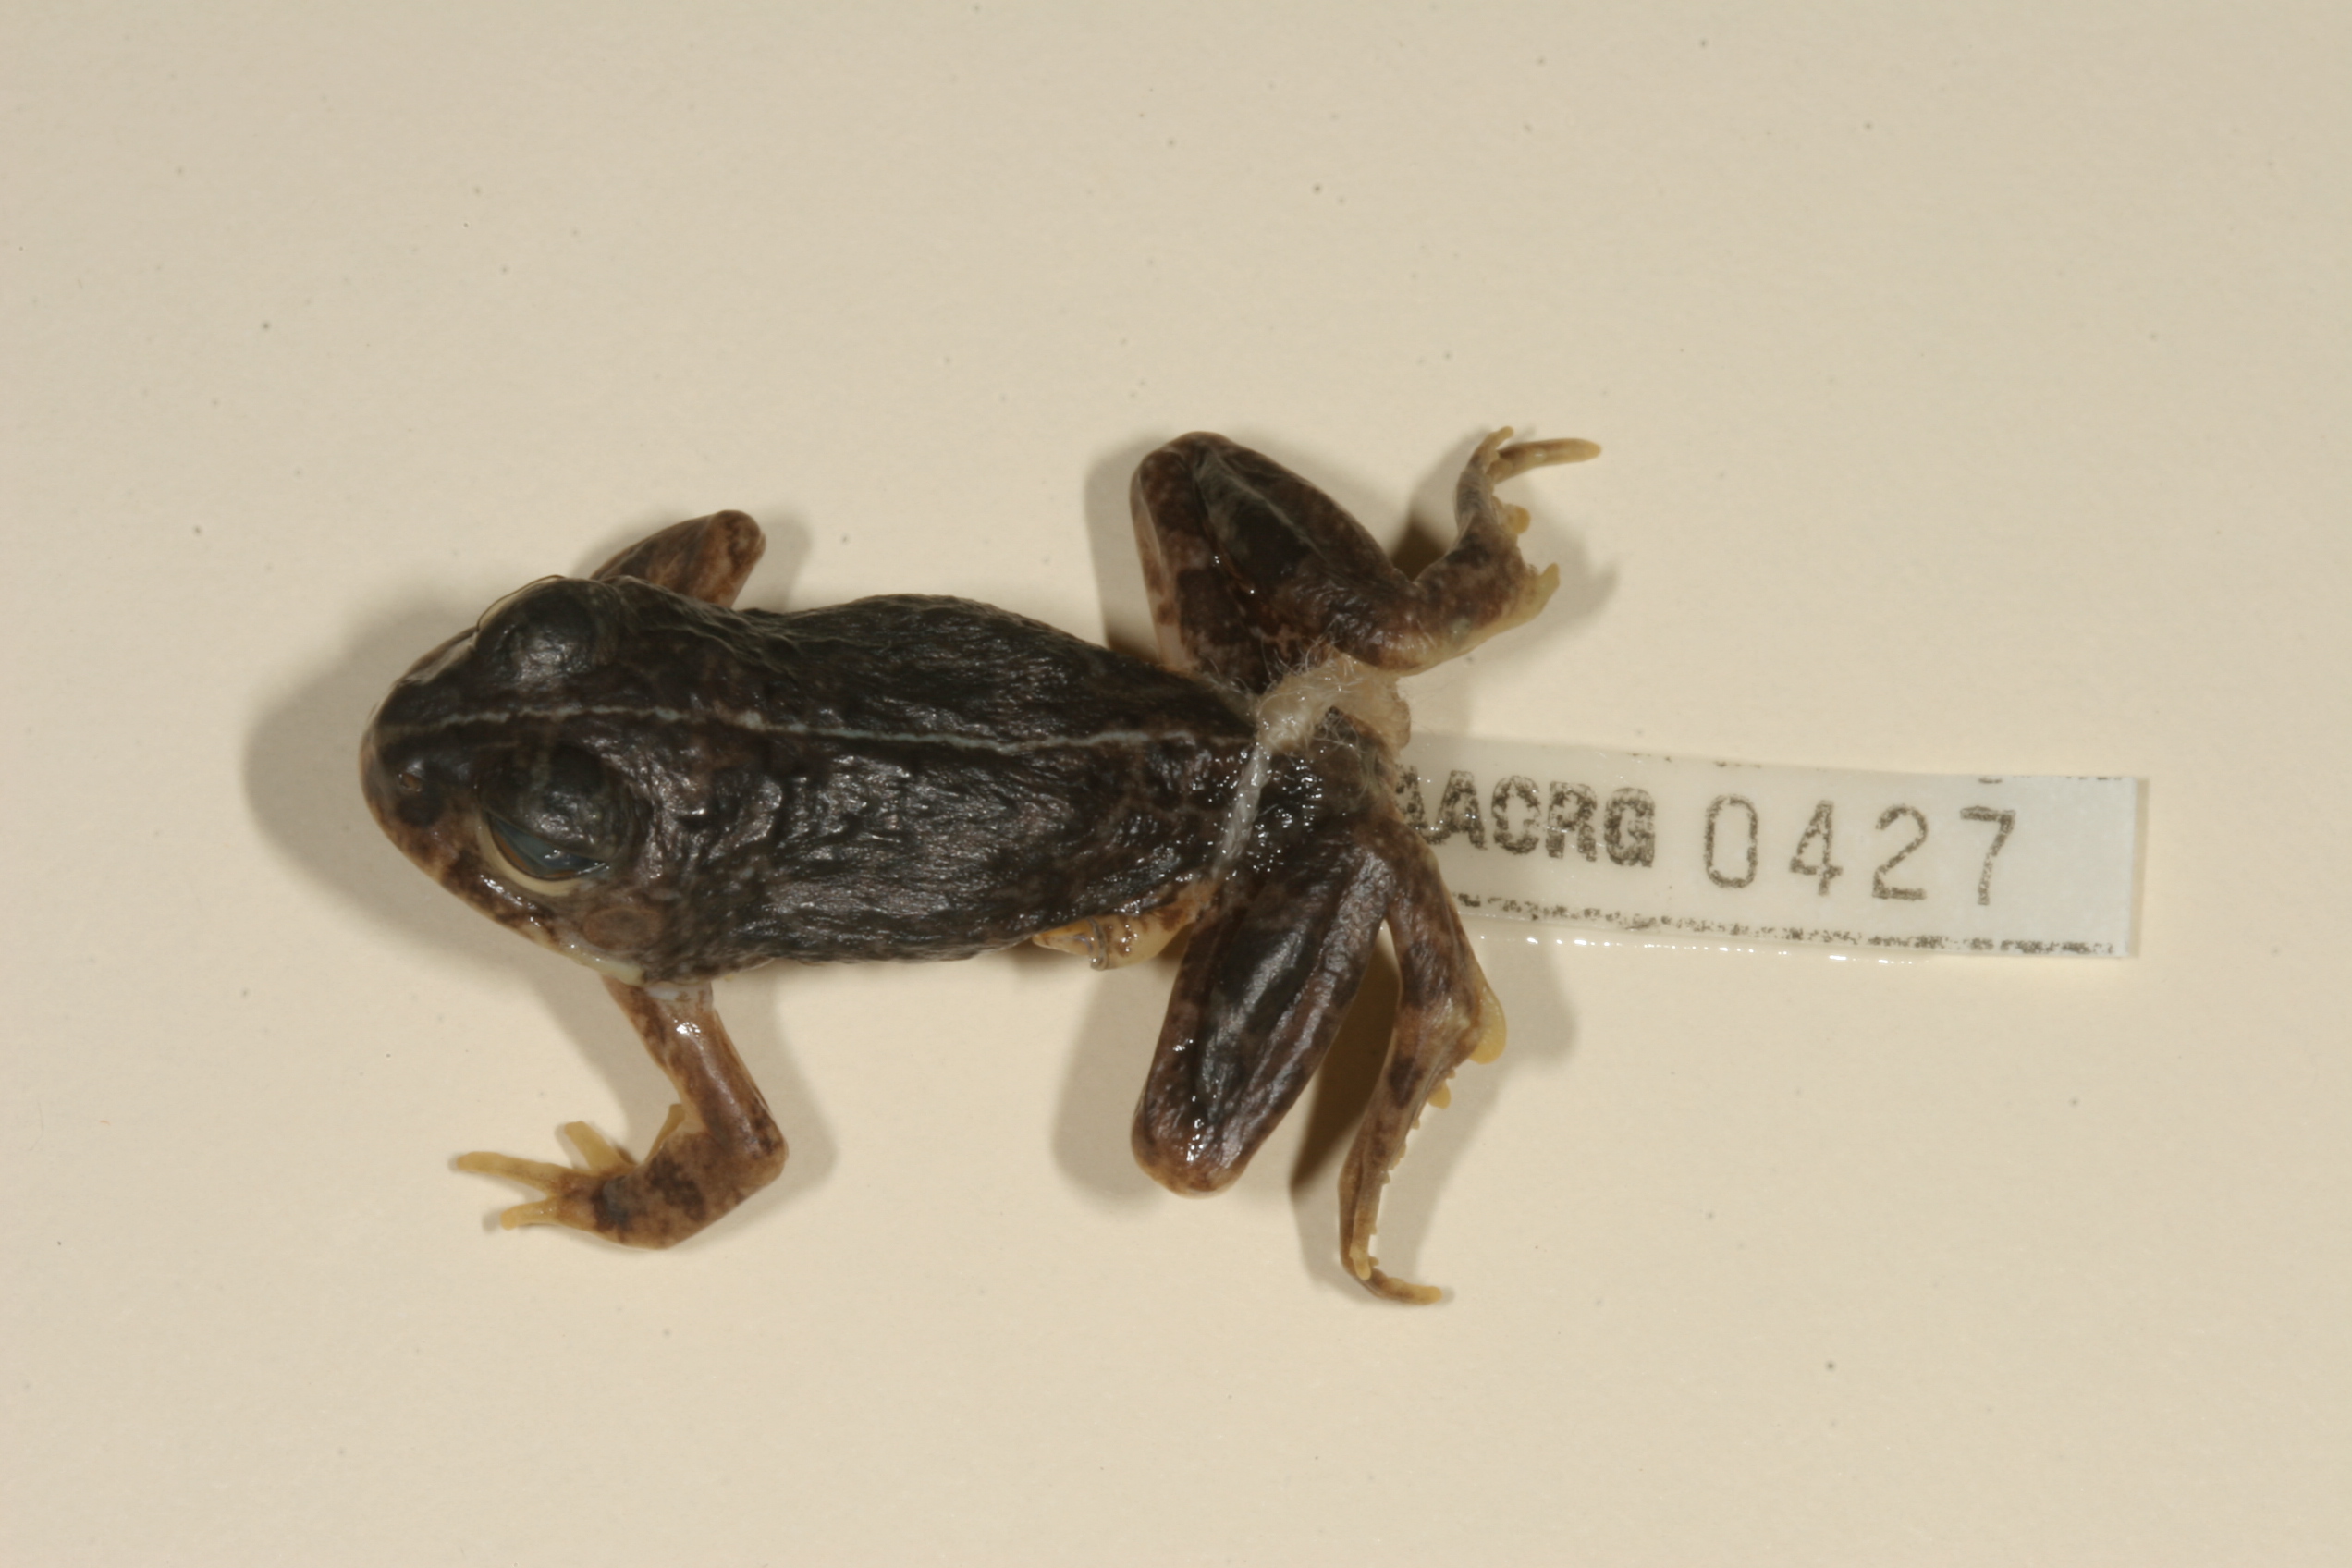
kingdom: Animalia
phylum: Chordata
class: Amphibia
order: Anura
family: Pyxicephalidae
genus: Tomopterna
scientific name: Tomopterna cryptotis
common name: Catequero bullfrog
